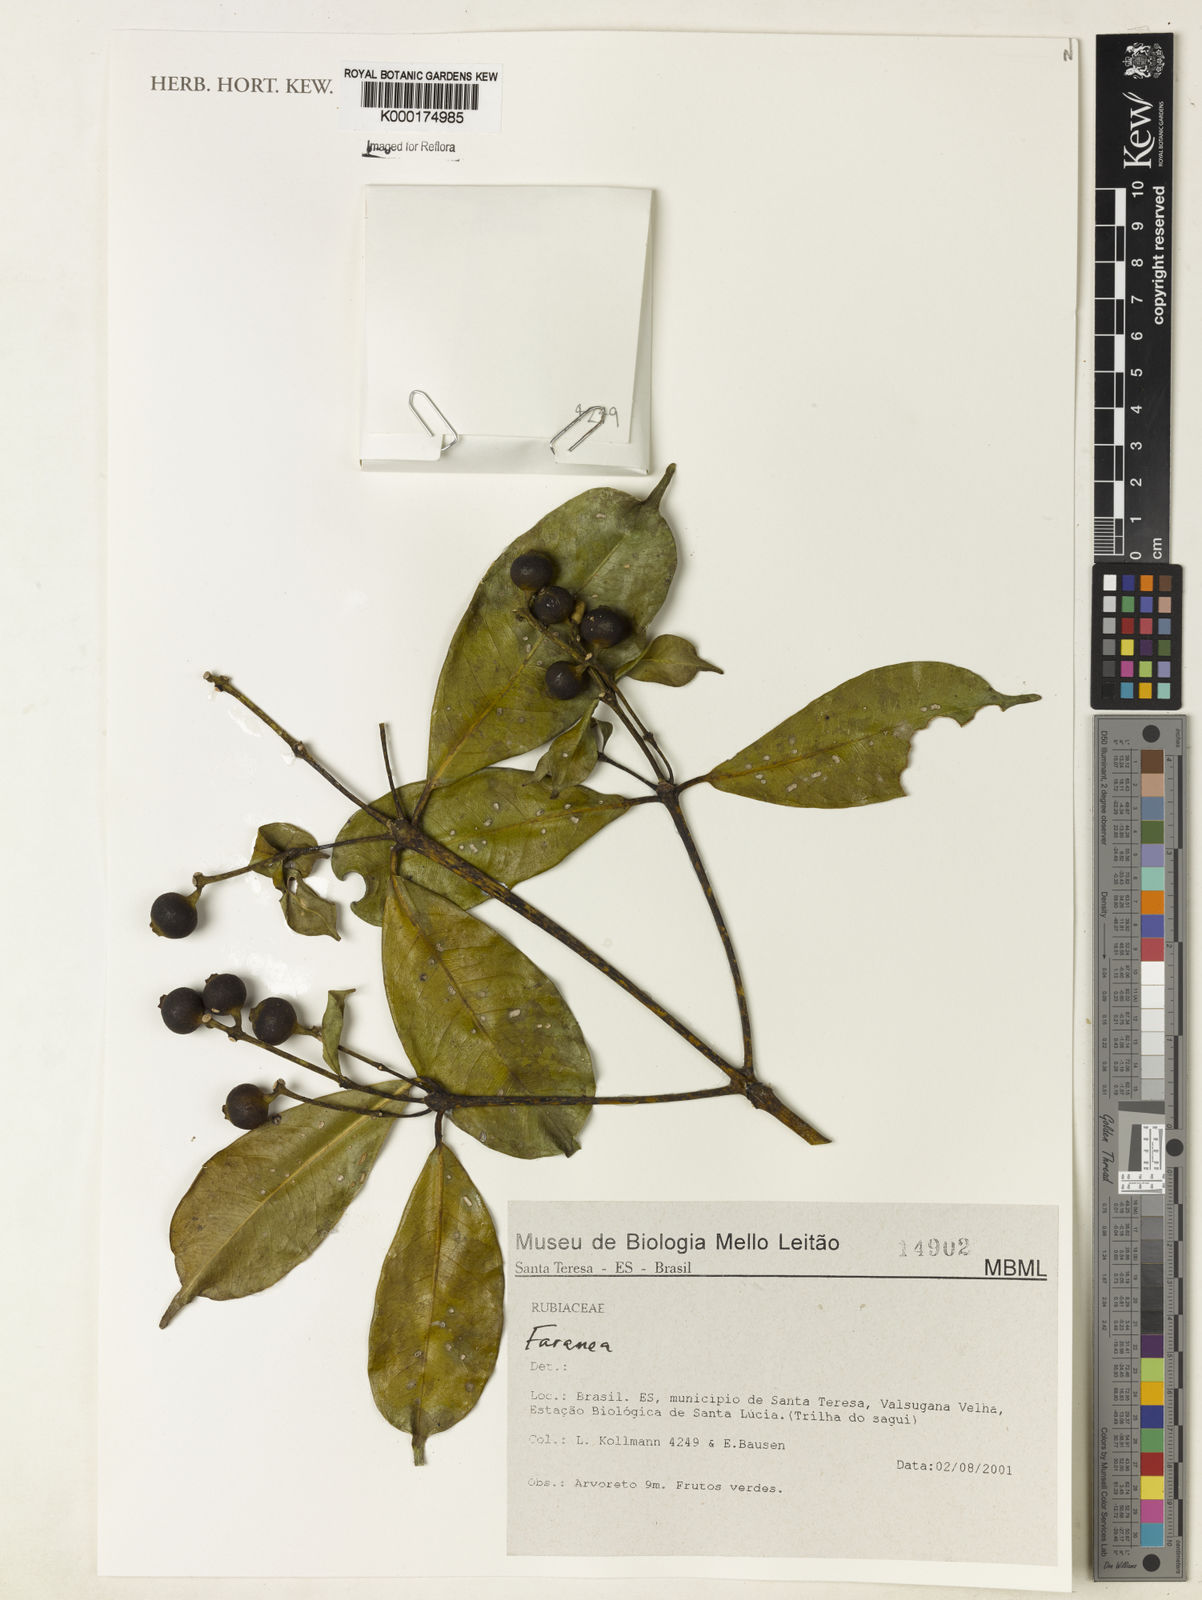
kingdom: Plantae
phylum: Tracheophyta
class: Magnoliopsida
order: Gentianales
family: Rubiaceae
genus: Faramea
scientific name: Faramea
